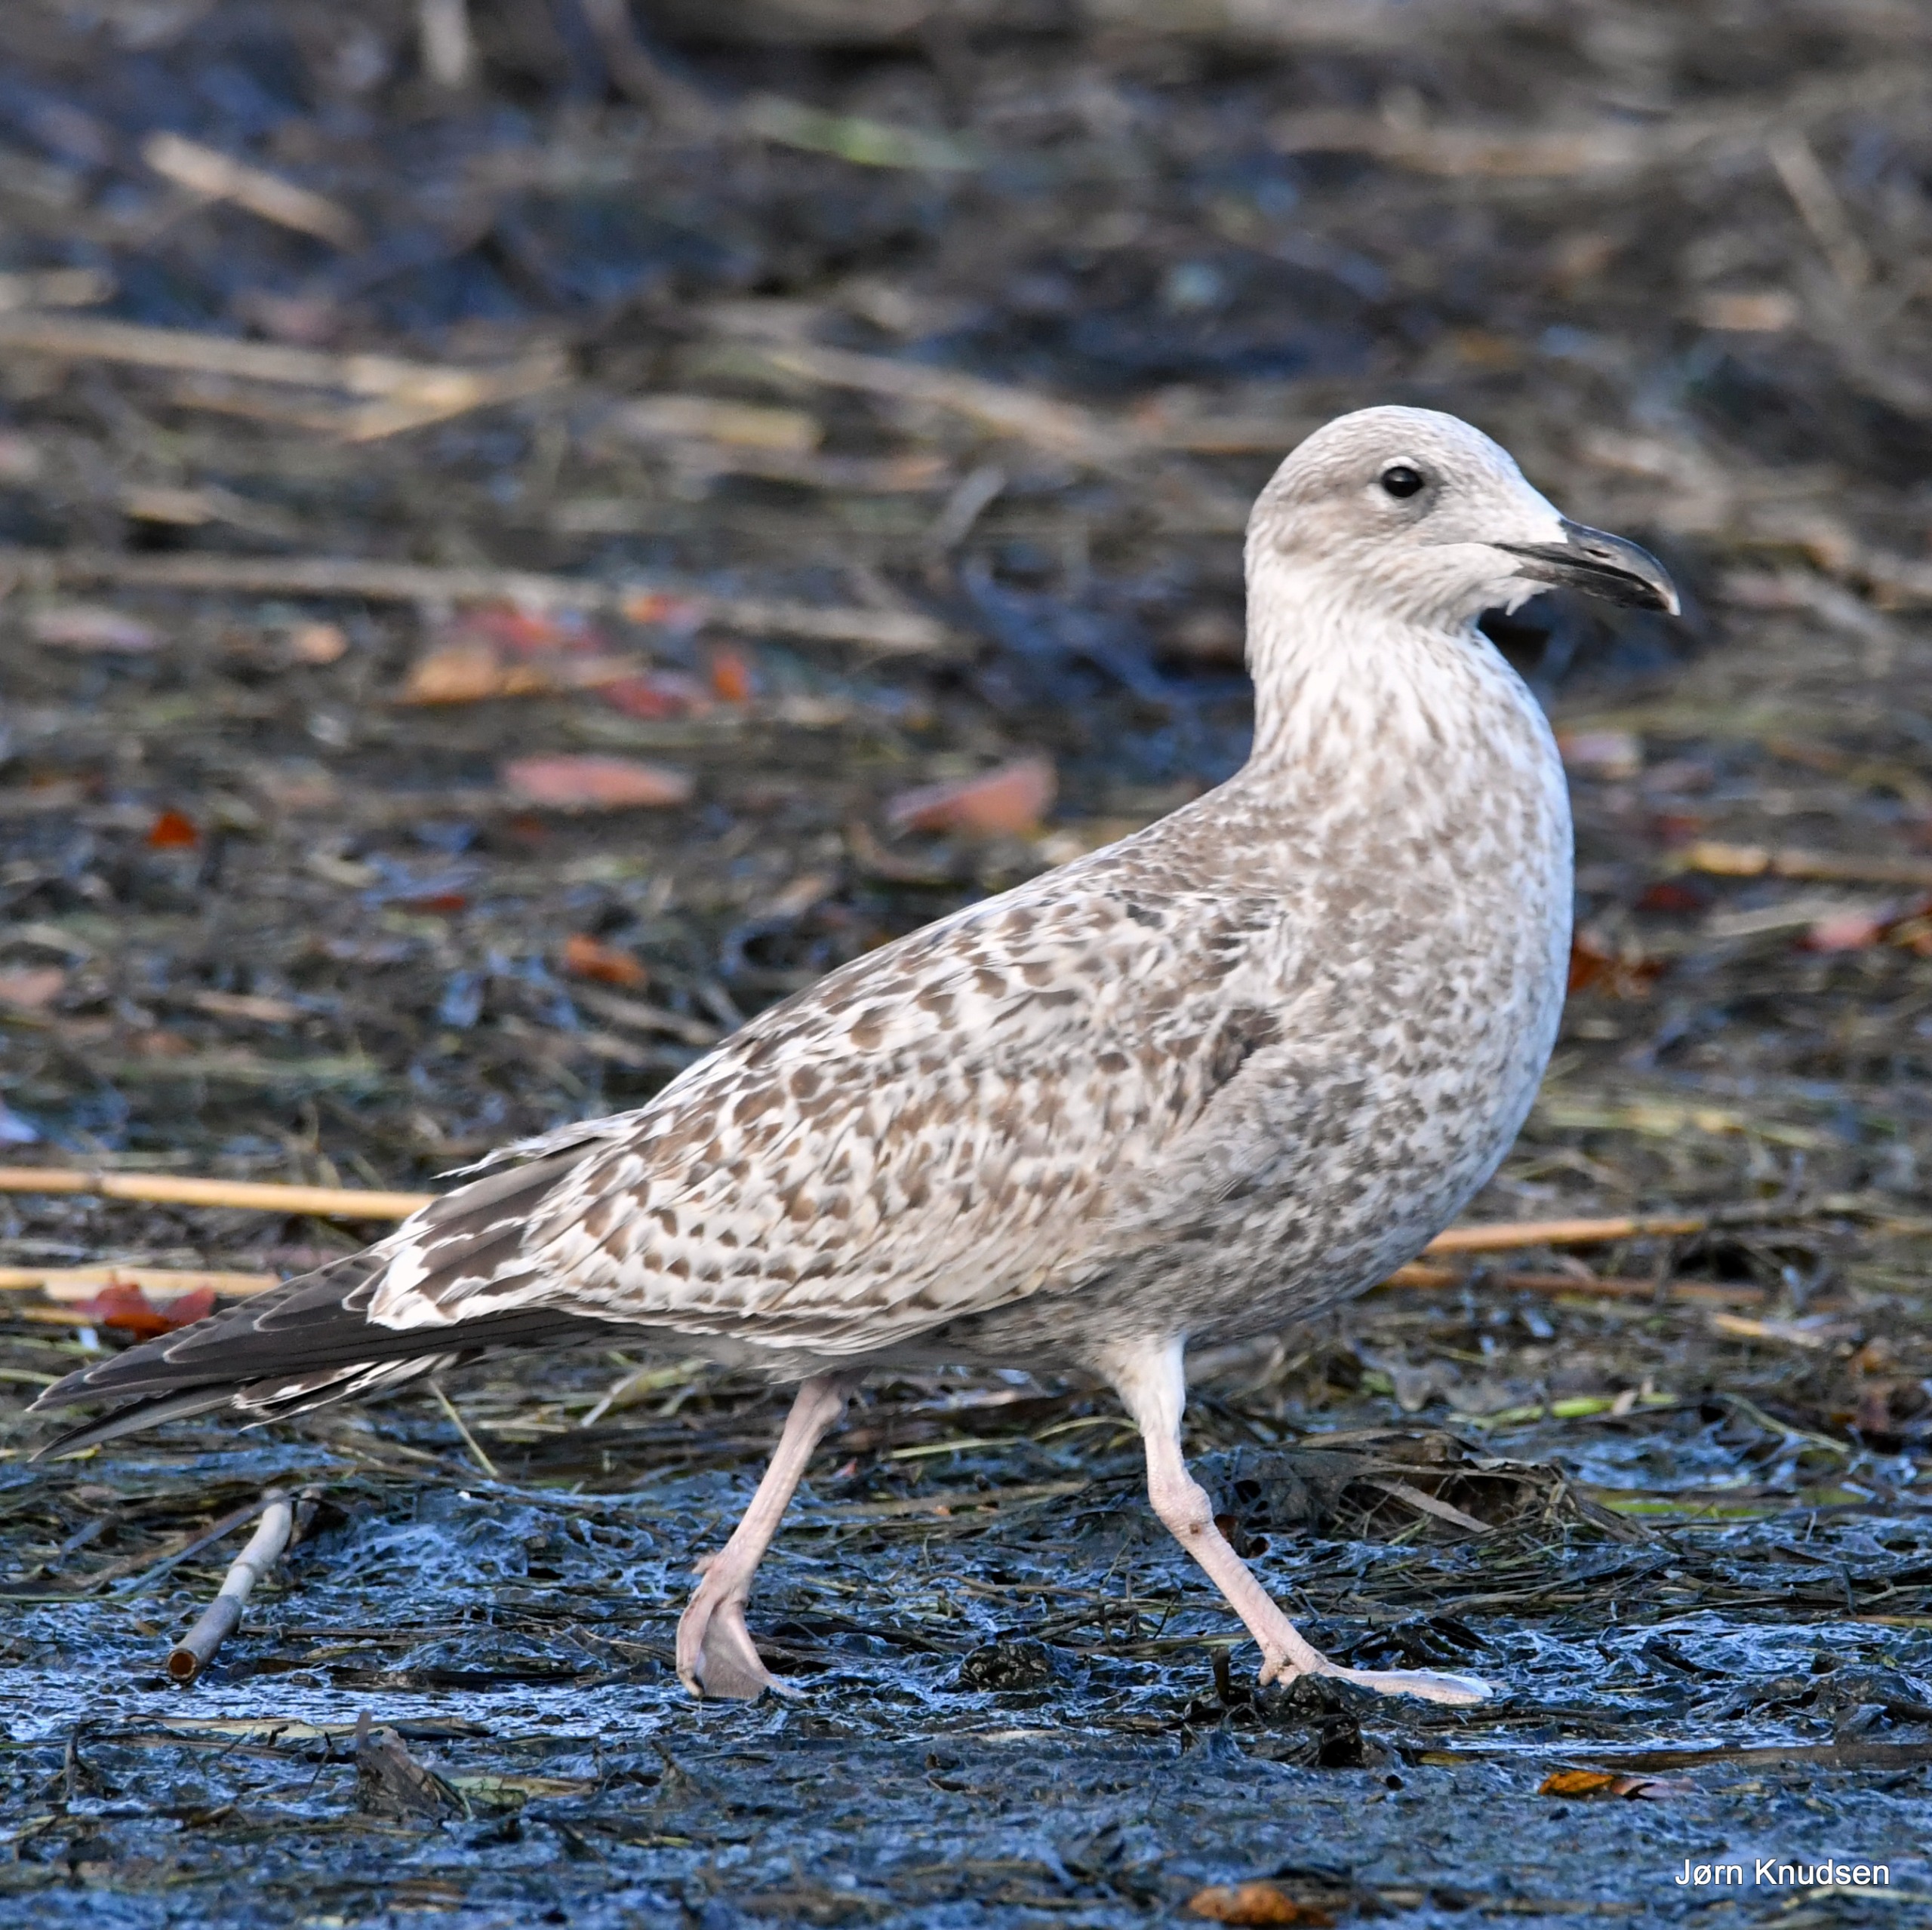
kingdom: Animalia
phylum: Chordata
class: Aves
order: Charadriiformes
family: Laridae
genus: Larus
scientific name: Larus argentatus
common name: Sølvmåge
